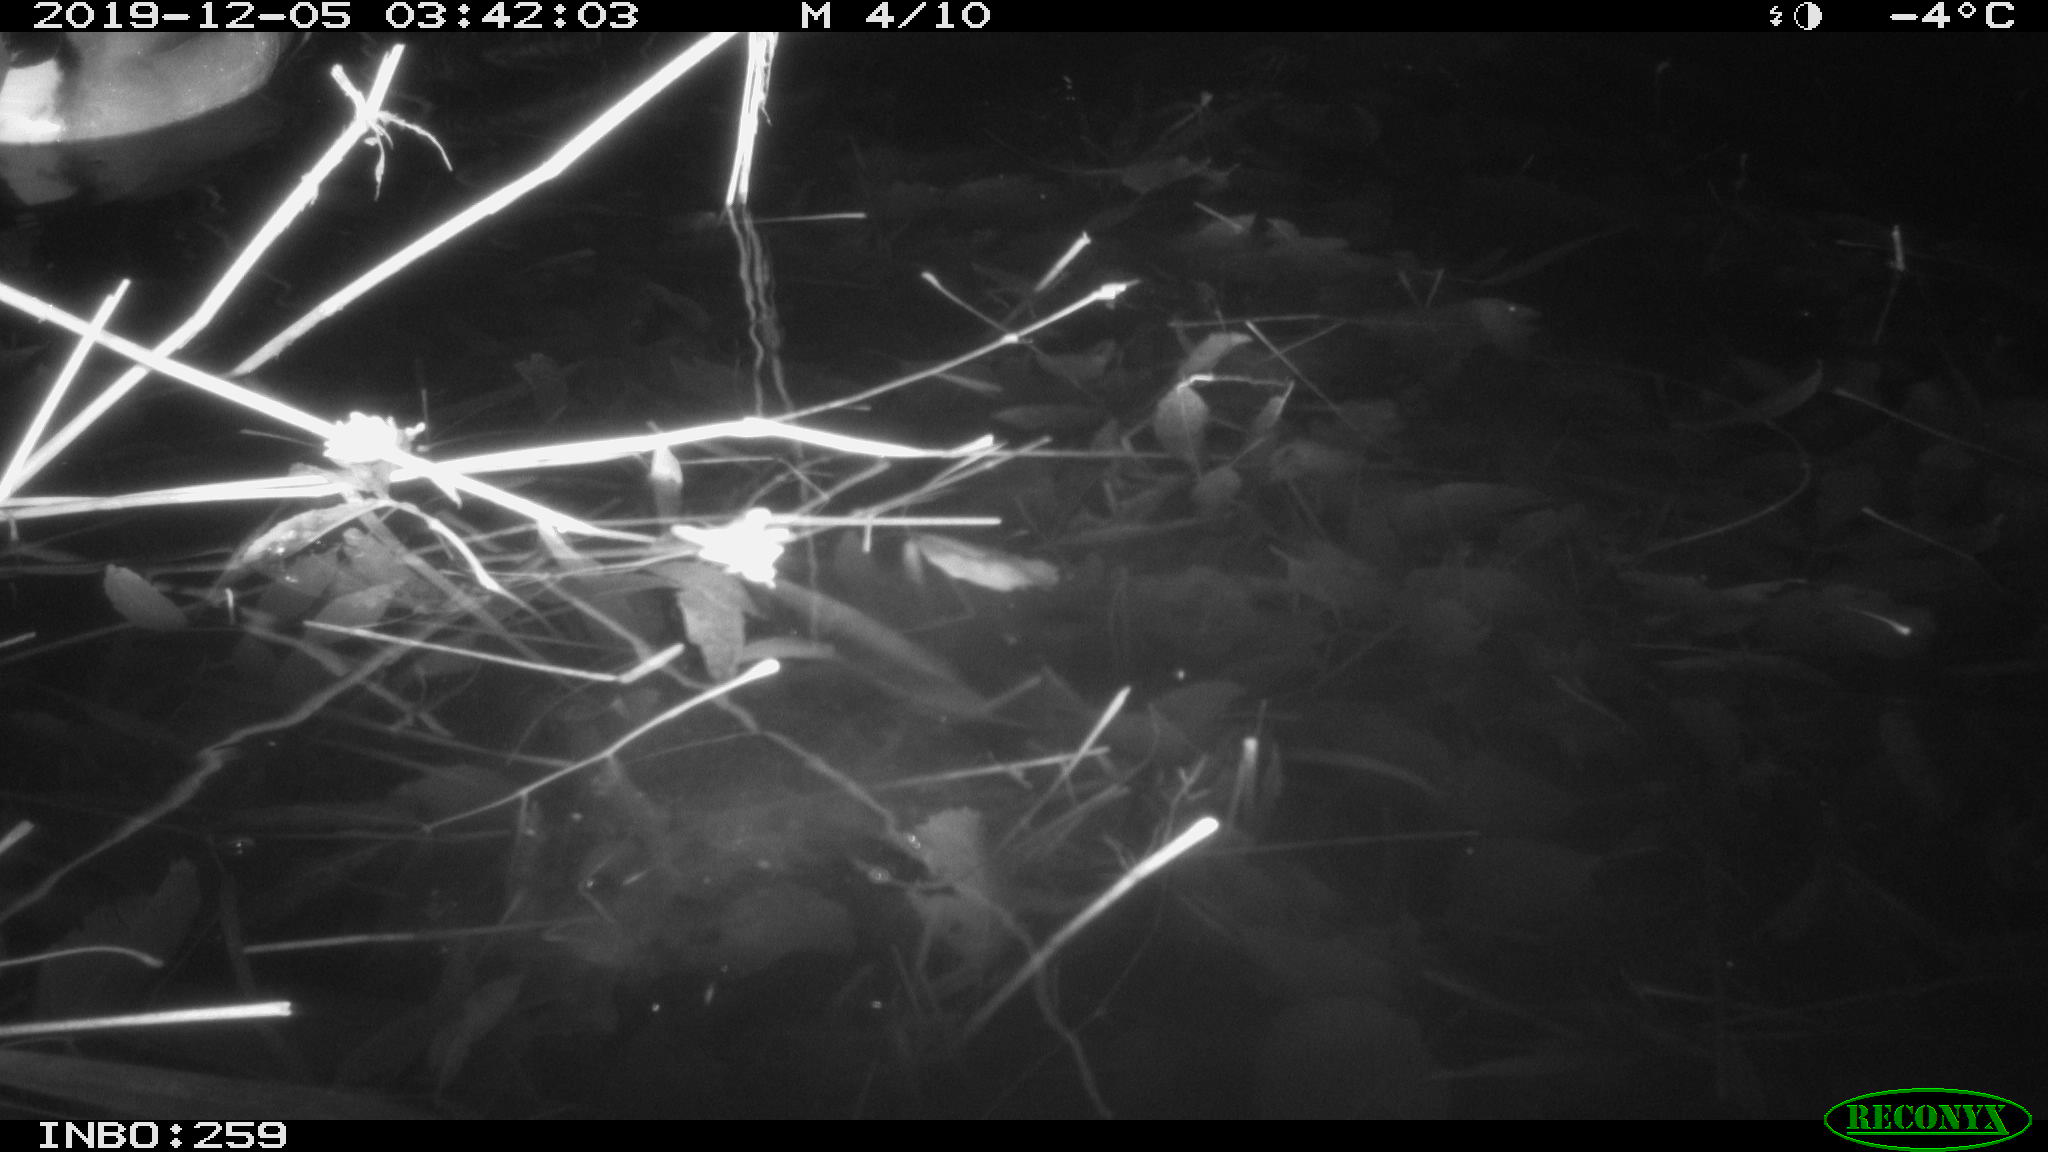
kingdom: Animalia
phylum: Chordata
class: Aves
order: Anseriformes
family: Anatidae
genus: Anas
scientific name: Anas platyrhynchos
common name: Mallard
